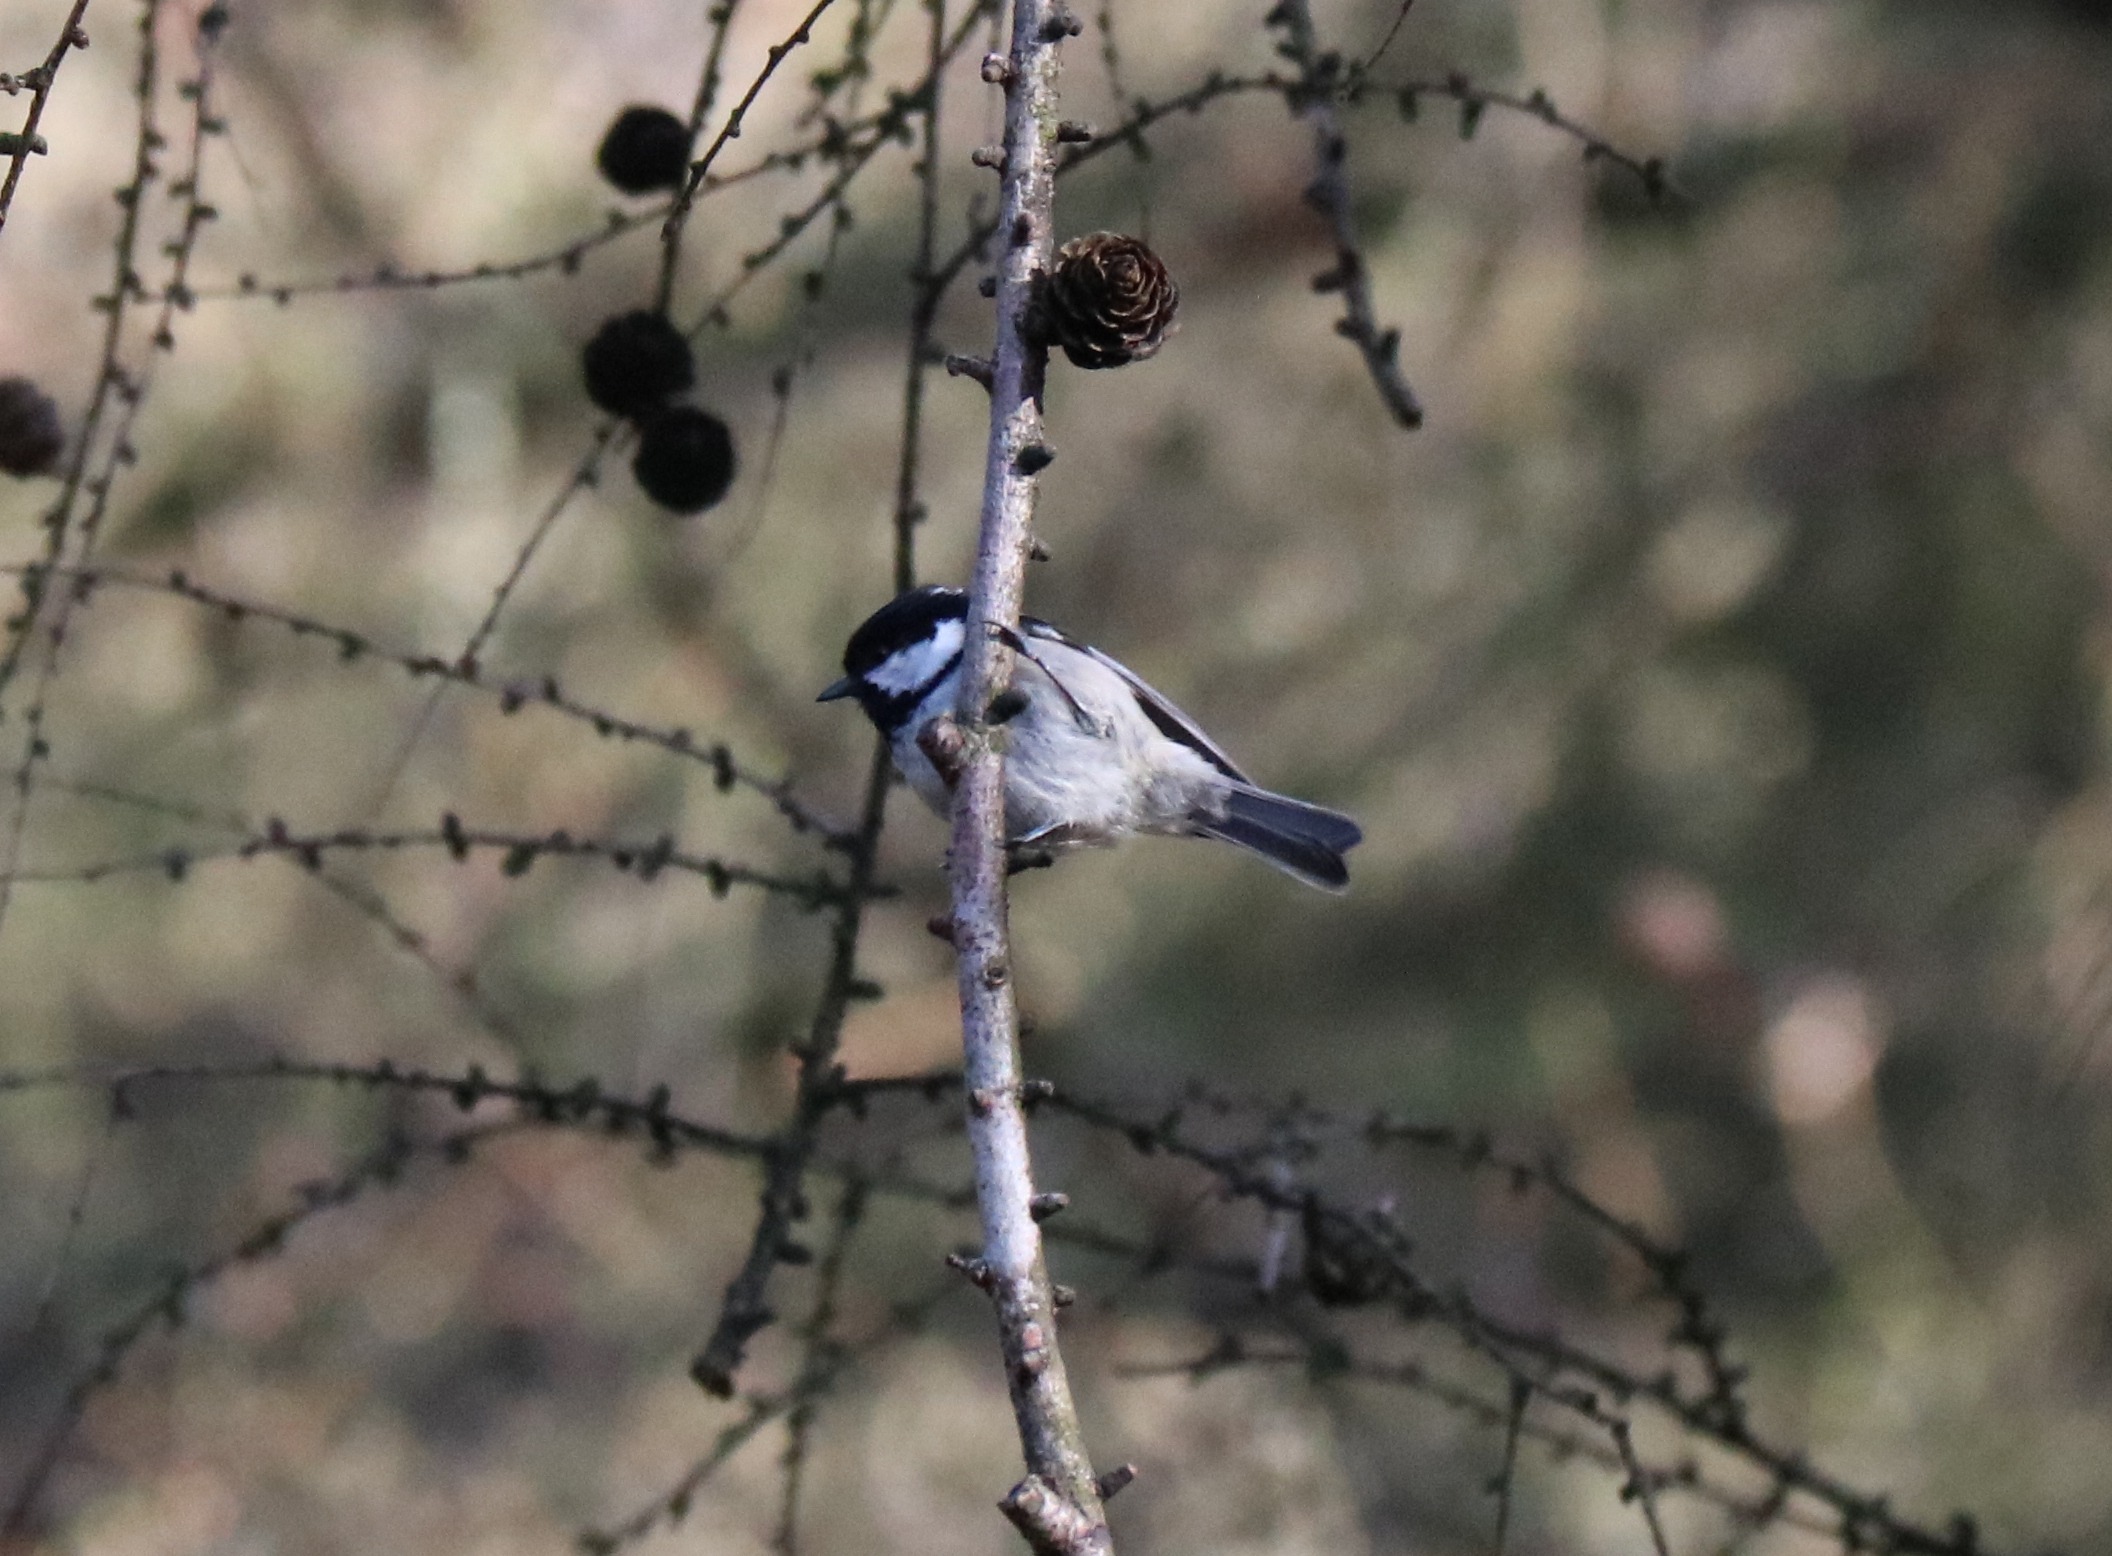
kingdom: Animalia
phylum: Chordata
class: Aves
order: Passeriformes
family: Paridae
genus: Periparus
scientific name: Periparus ater
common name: Sortmejse
